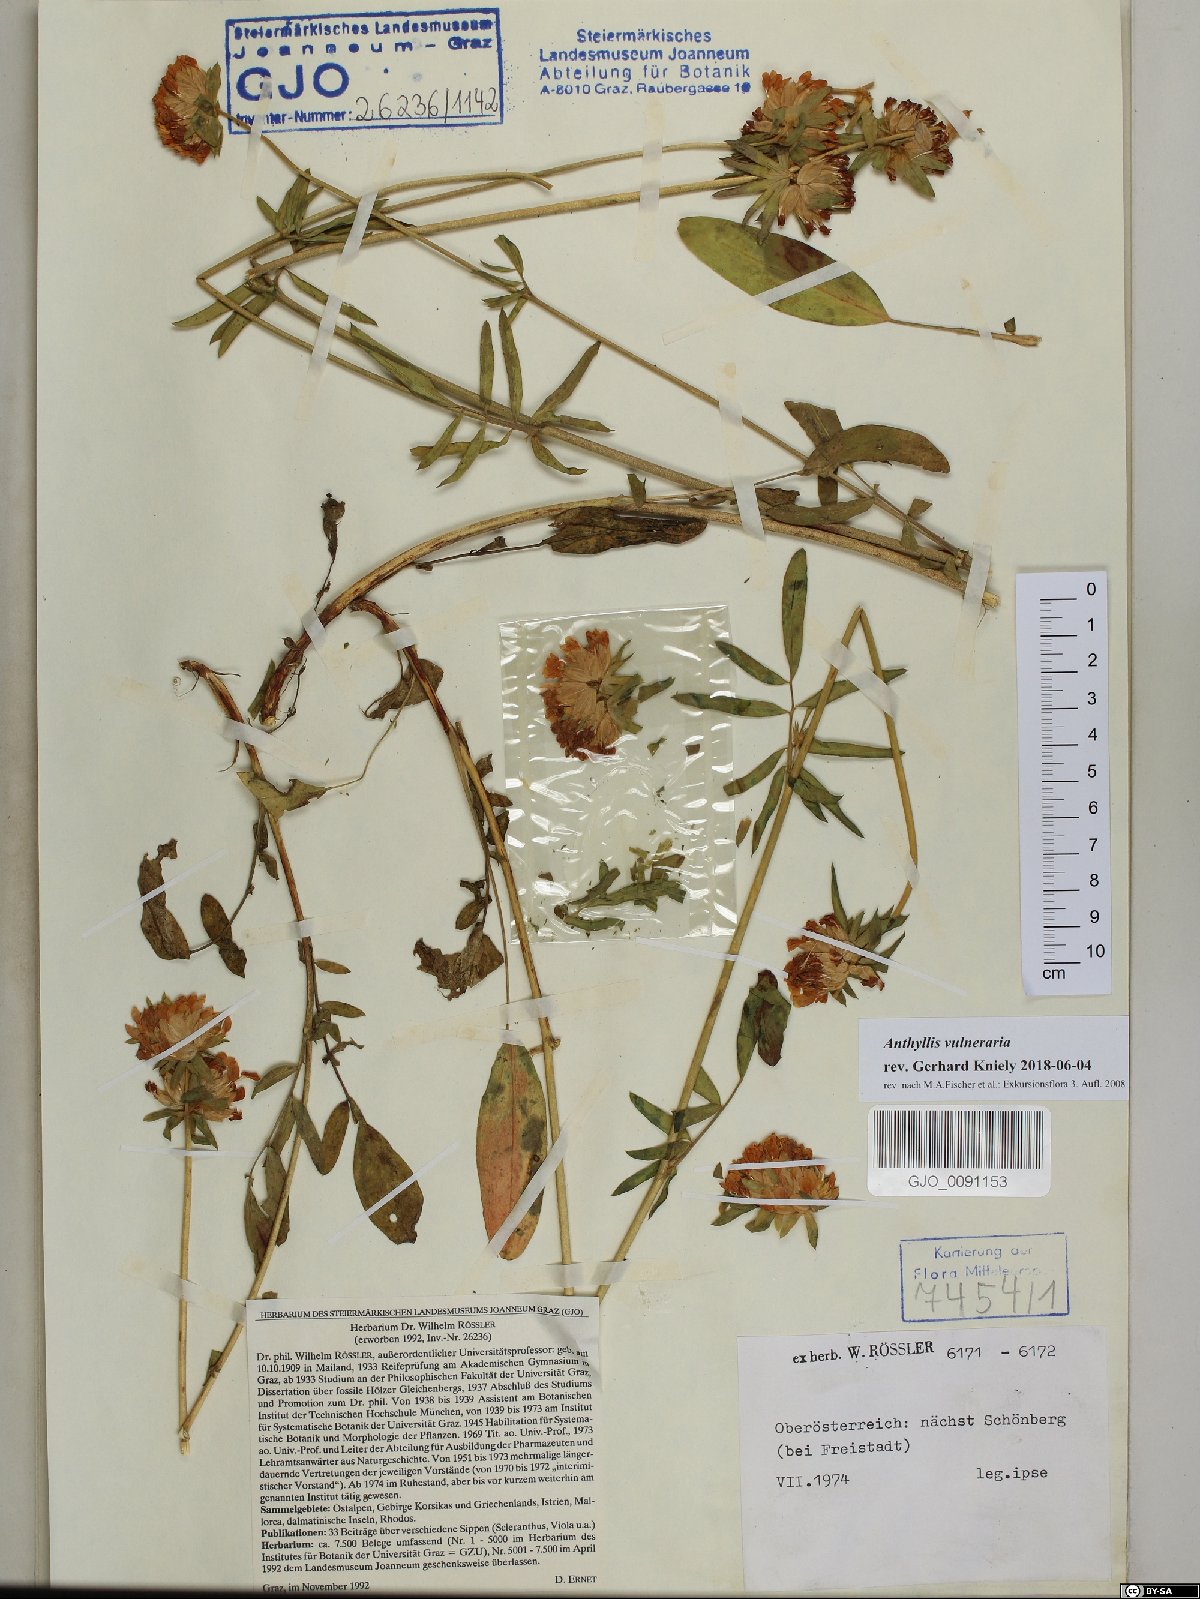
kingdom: Plantae
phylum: Tracheophyta
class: Magnoliopsida
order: Fabales
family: Fabaceae
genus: Anthyllis
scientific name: Anthyllis vulneraria
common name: Kidney vetch
